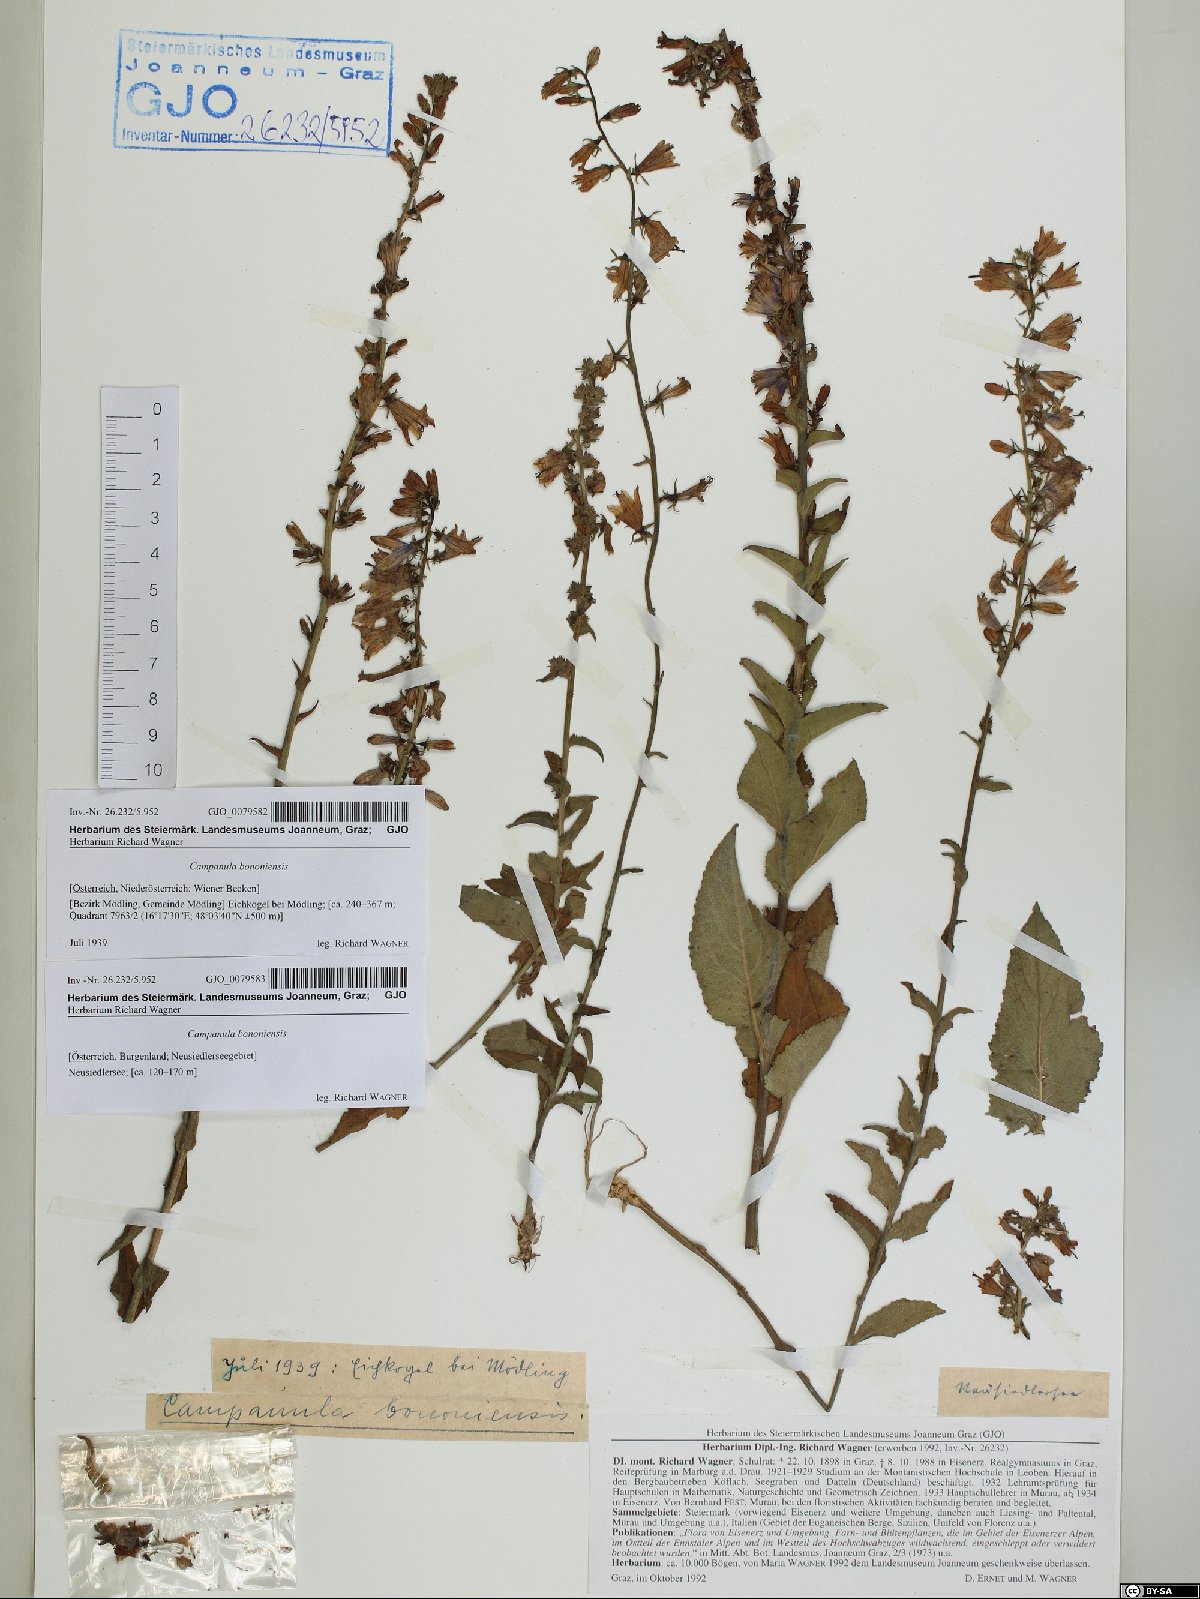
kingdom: Plantae
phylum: Tracheophyta
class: Magnoliopsida
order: Asterales
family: Campanulaceae
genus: Campanula
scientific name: Campanula bononiensis
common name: Pale bellflower
